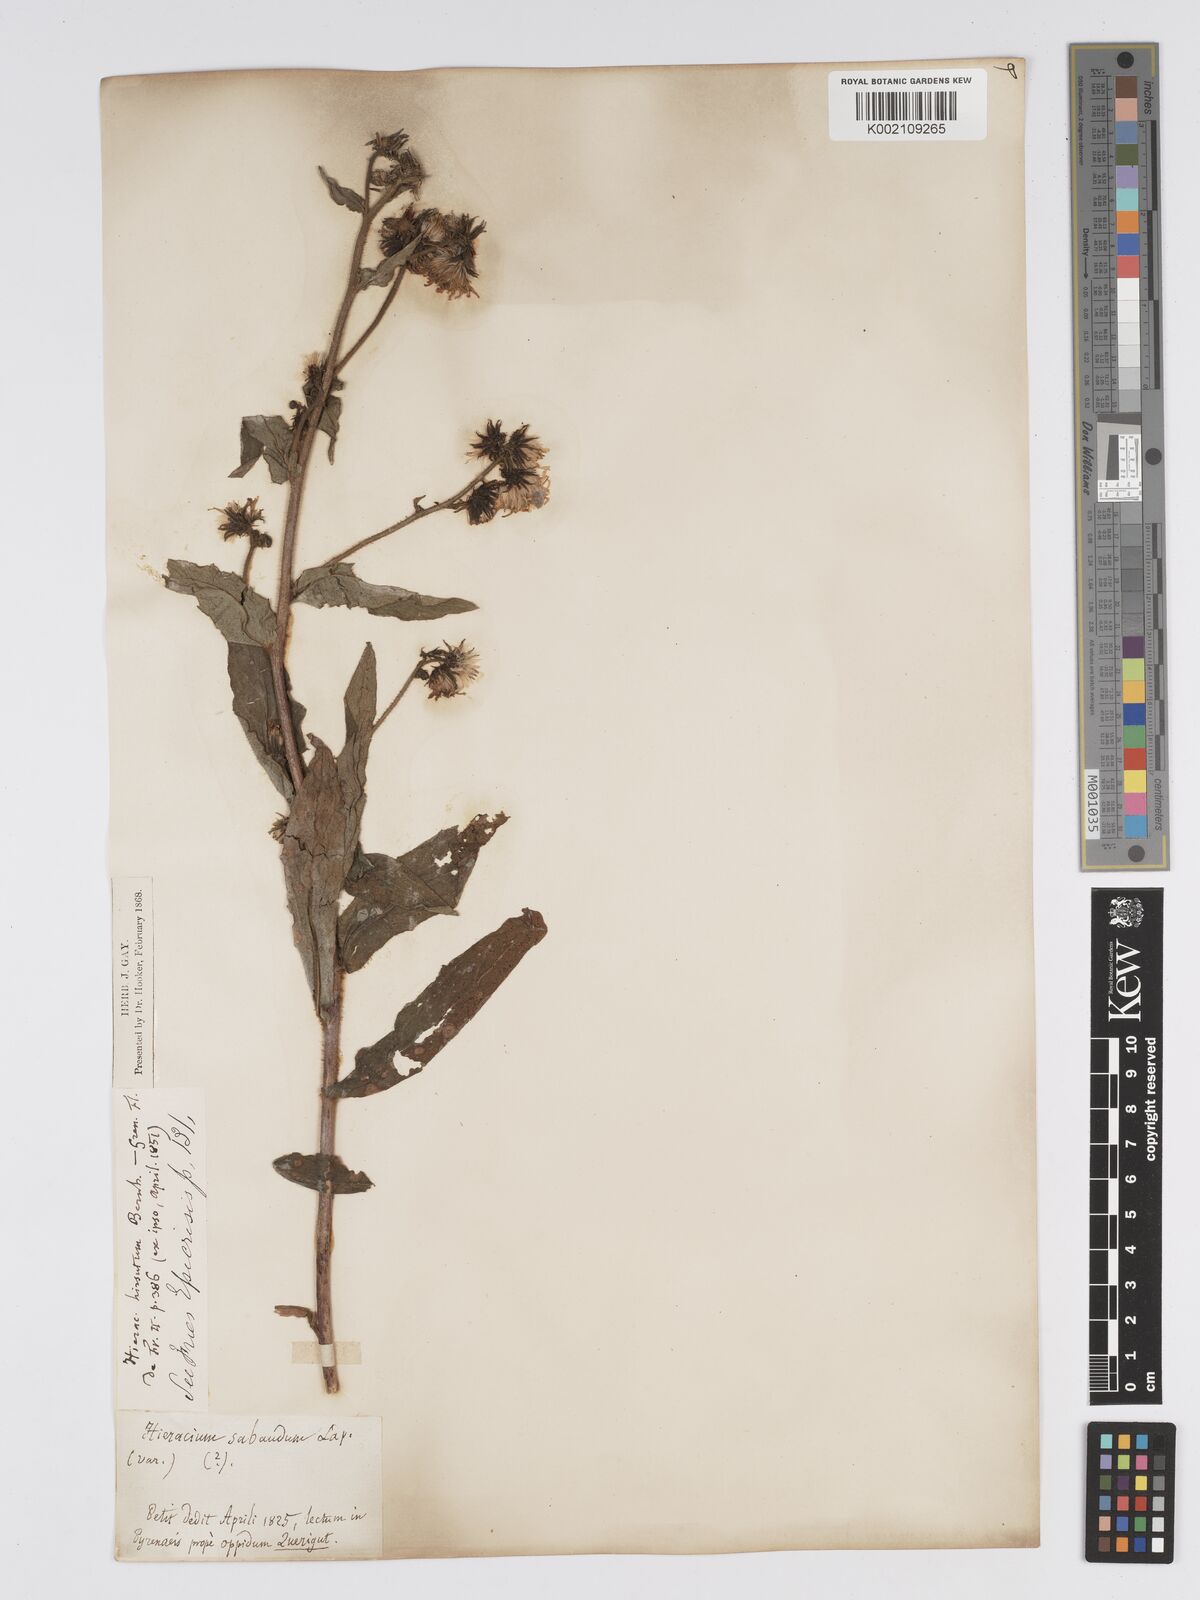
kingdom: Plantae
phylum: Tracheophyta
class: Magnoliopsida
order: Asterales
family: Asteraceae
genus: Hieracium
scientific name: Hieracium lycopifolium
